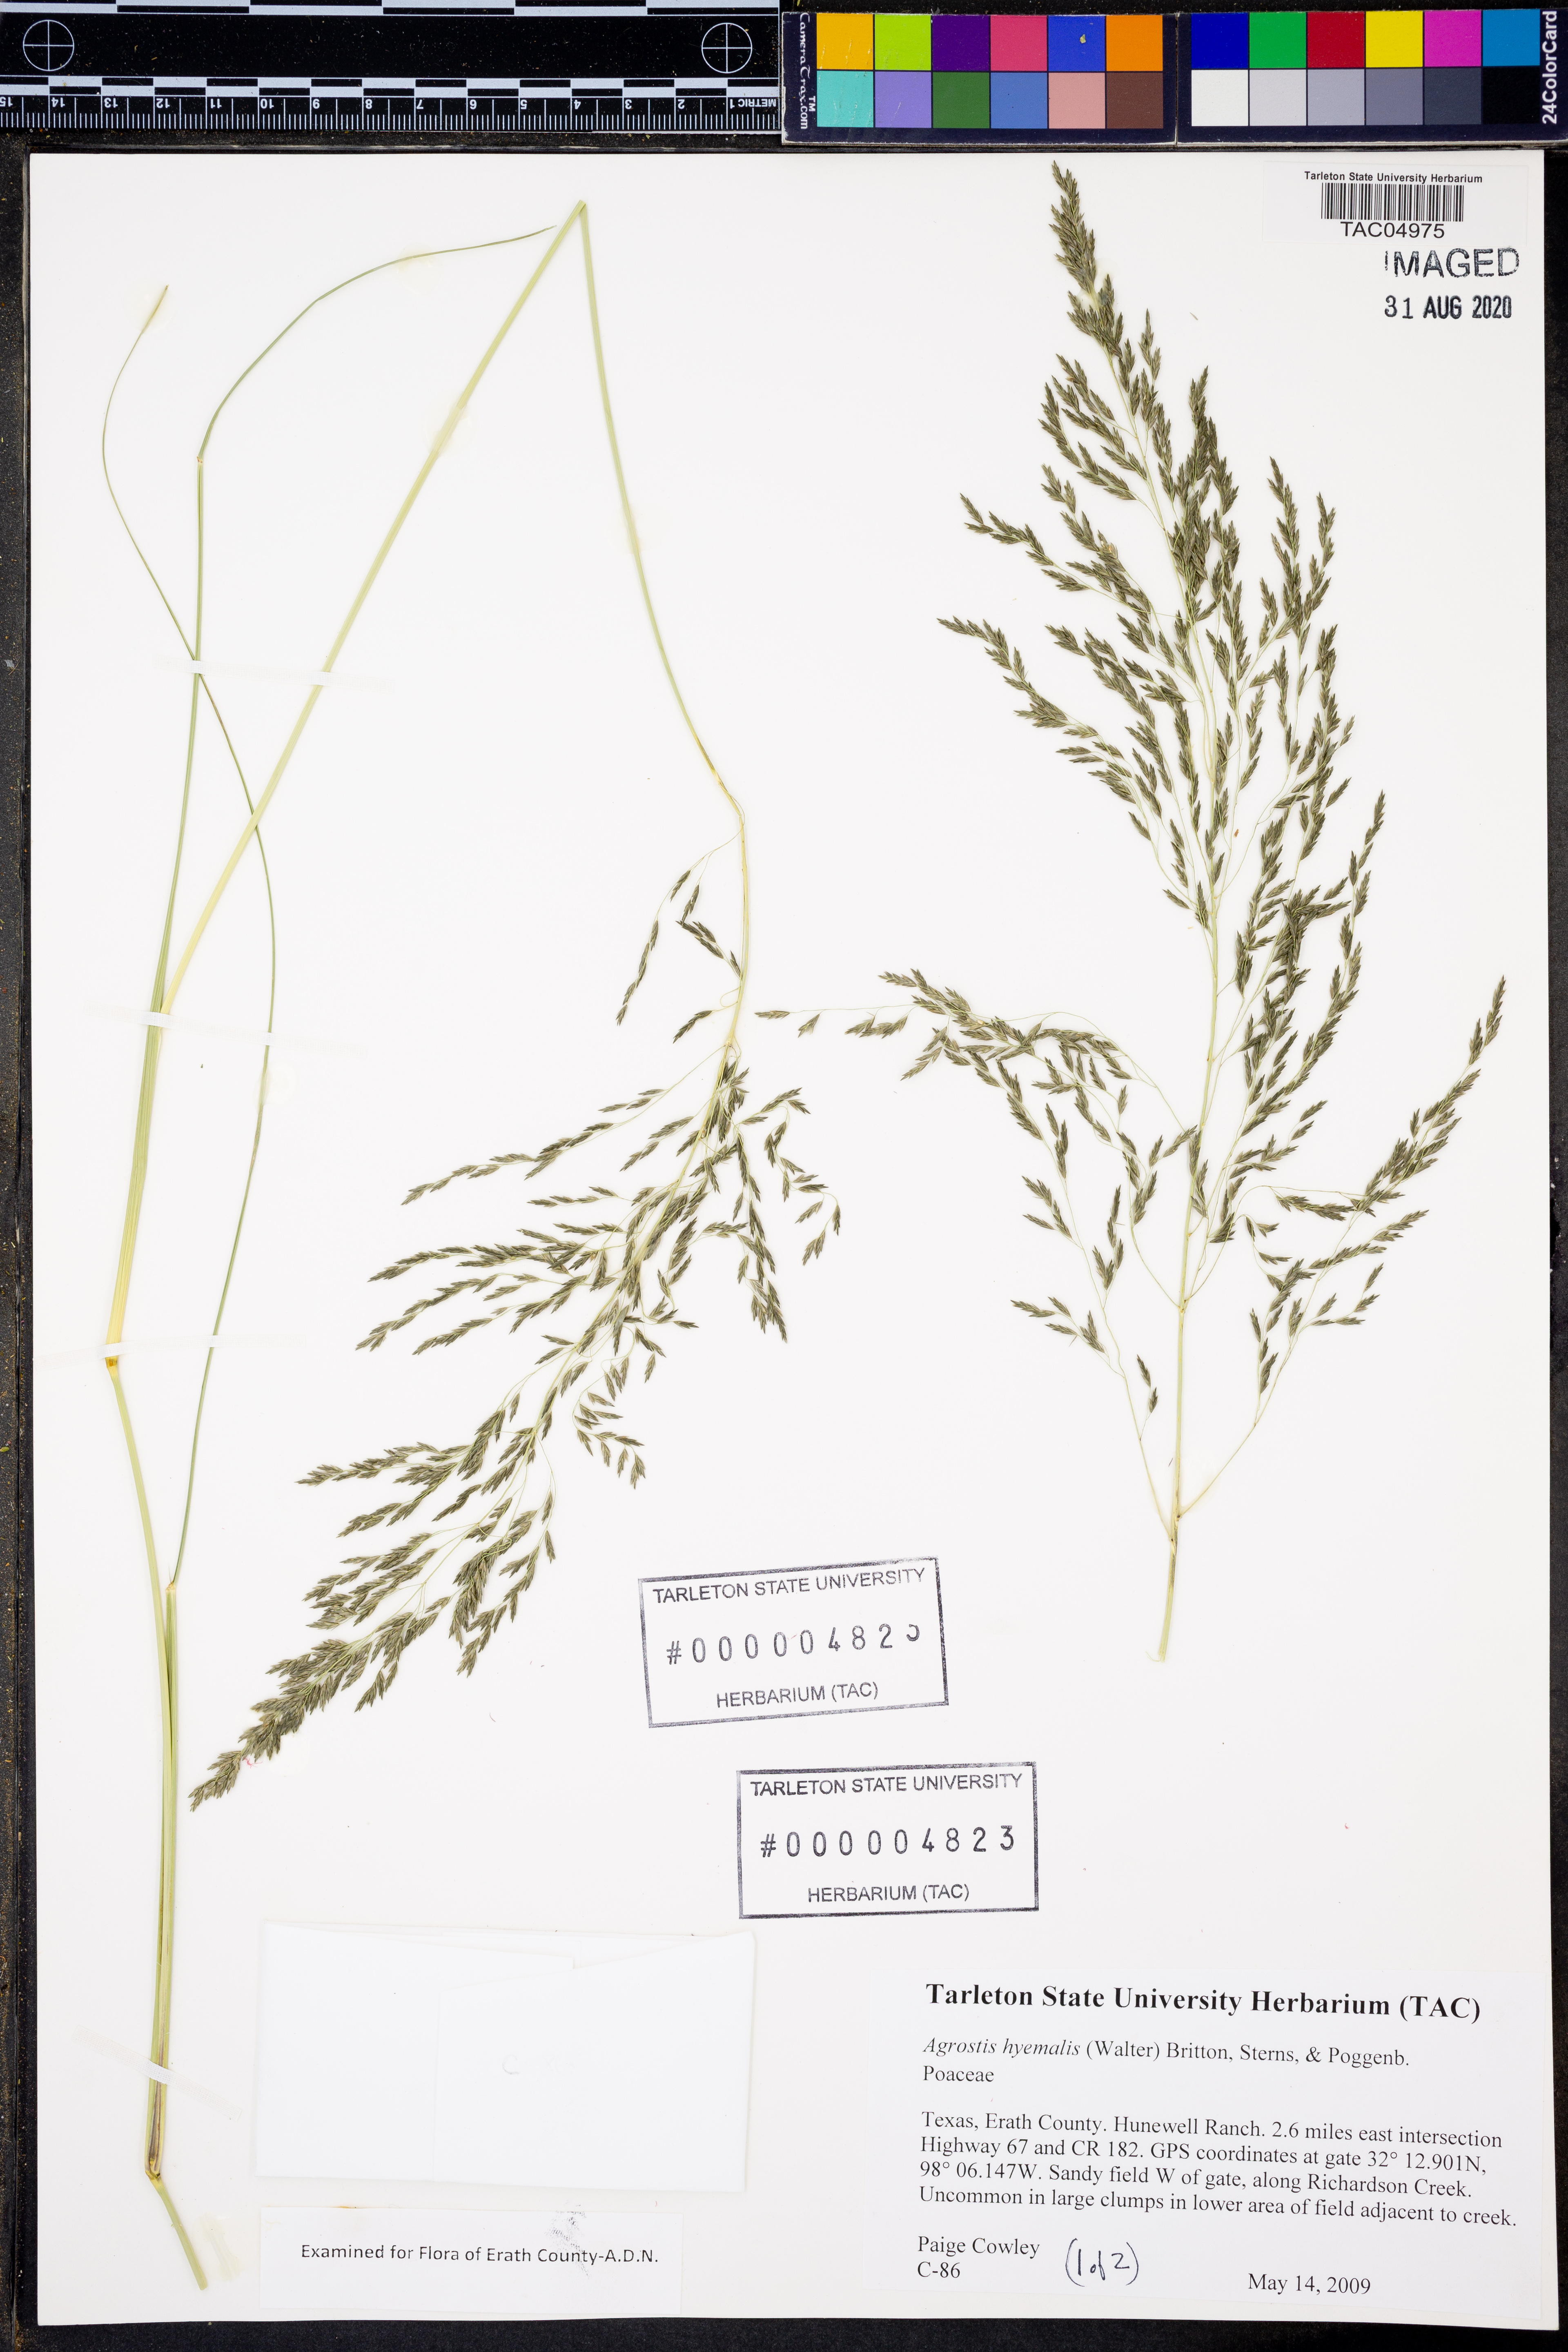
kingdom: Plantae
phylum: Tracheophyta
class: Liliopsida
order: Poales
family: Poaceae
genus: Agrostis
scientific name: Agrostis hyemalis
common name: Small bent
